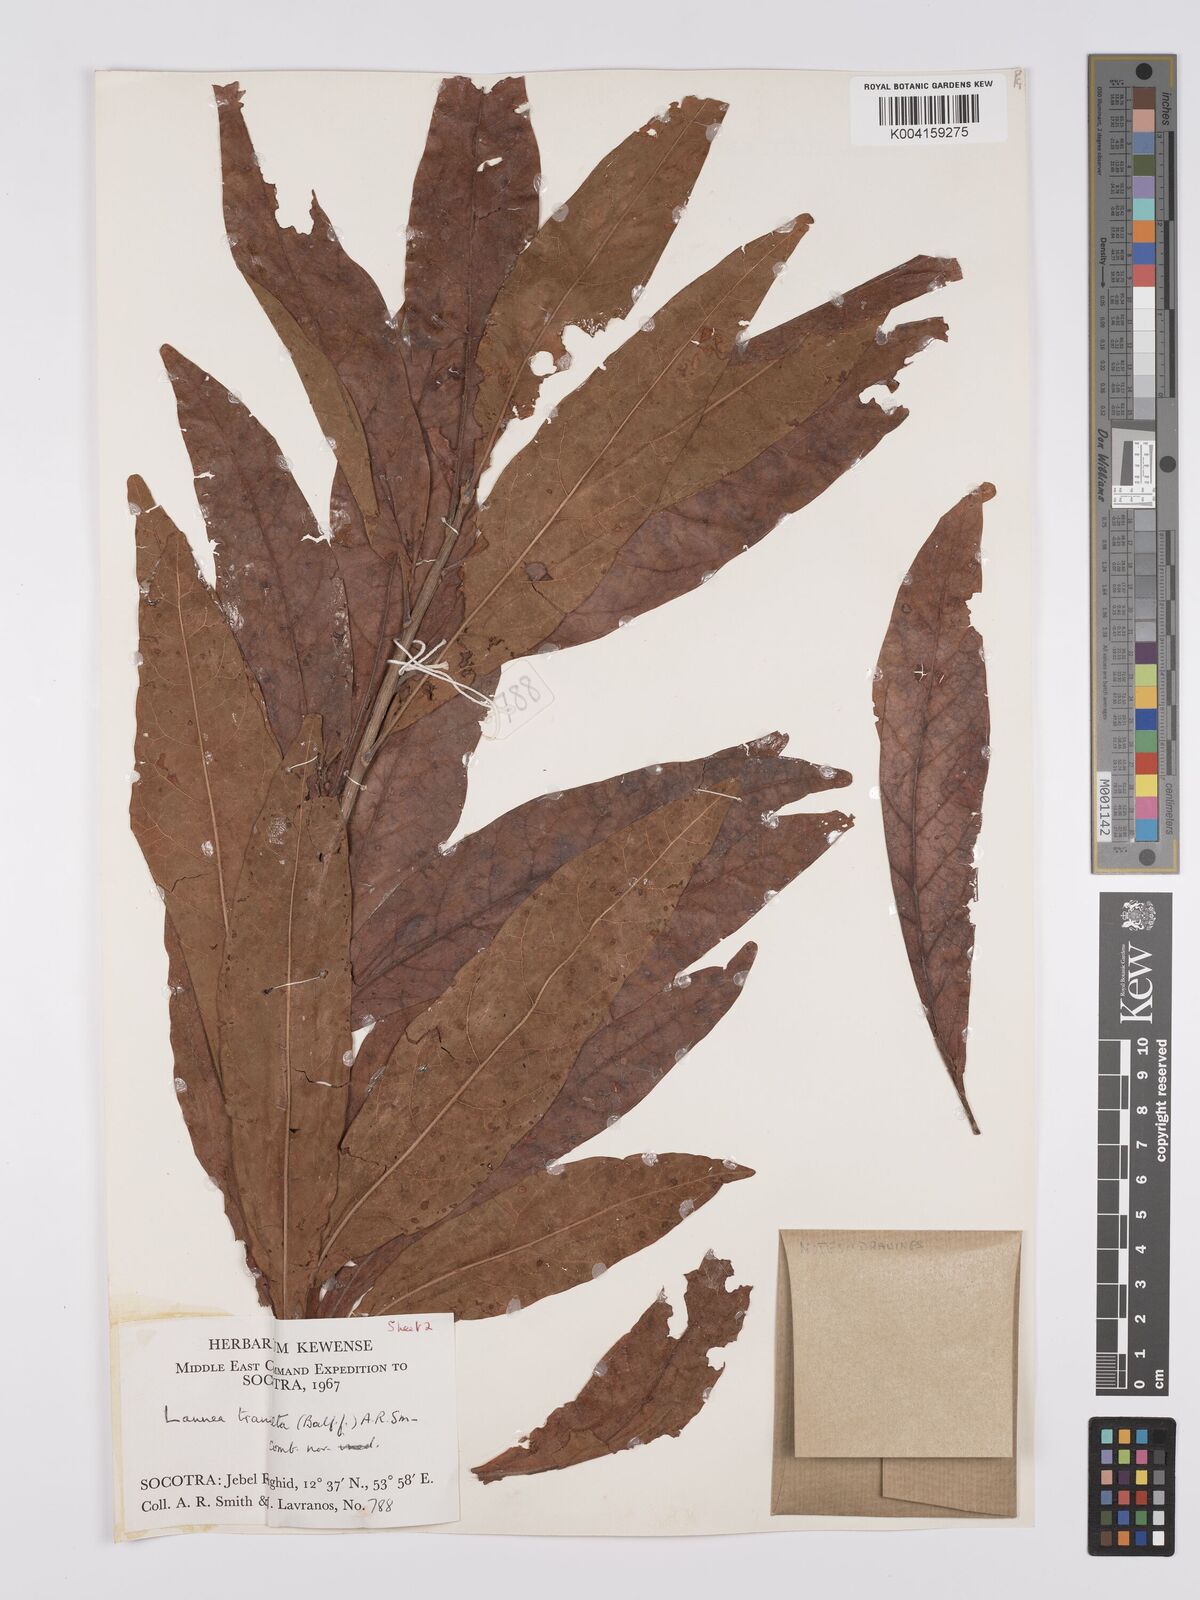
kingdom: Plantae
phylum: Tracheophyta
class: Magnoliopsida
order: Sapindales
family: Anacardiaceae
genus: Lannea
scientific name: Lannea transulta
